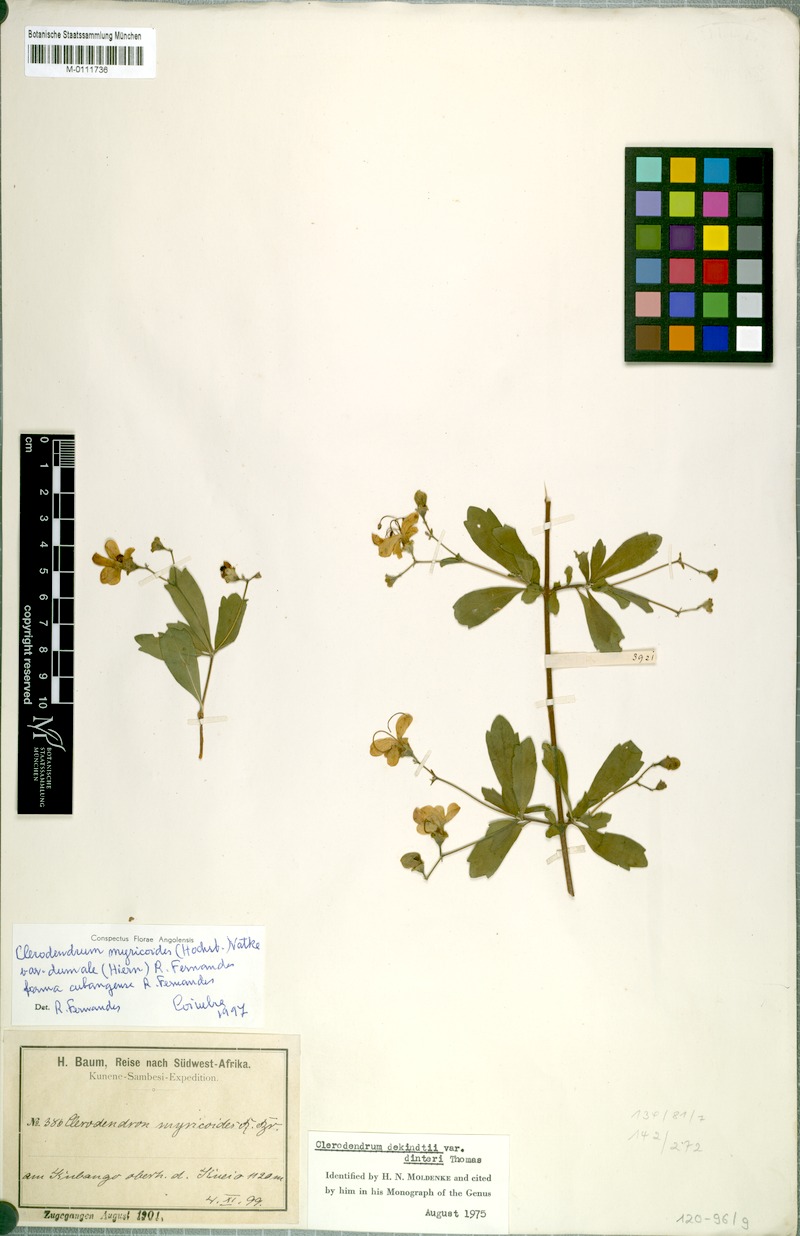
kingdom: Plantae
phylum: Tracheophyta
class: Magnoliopsida
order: Lamiales
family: Lamiaceae
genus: Rotheca
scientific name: Rotheca myricoides
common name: Cats-whiskers
